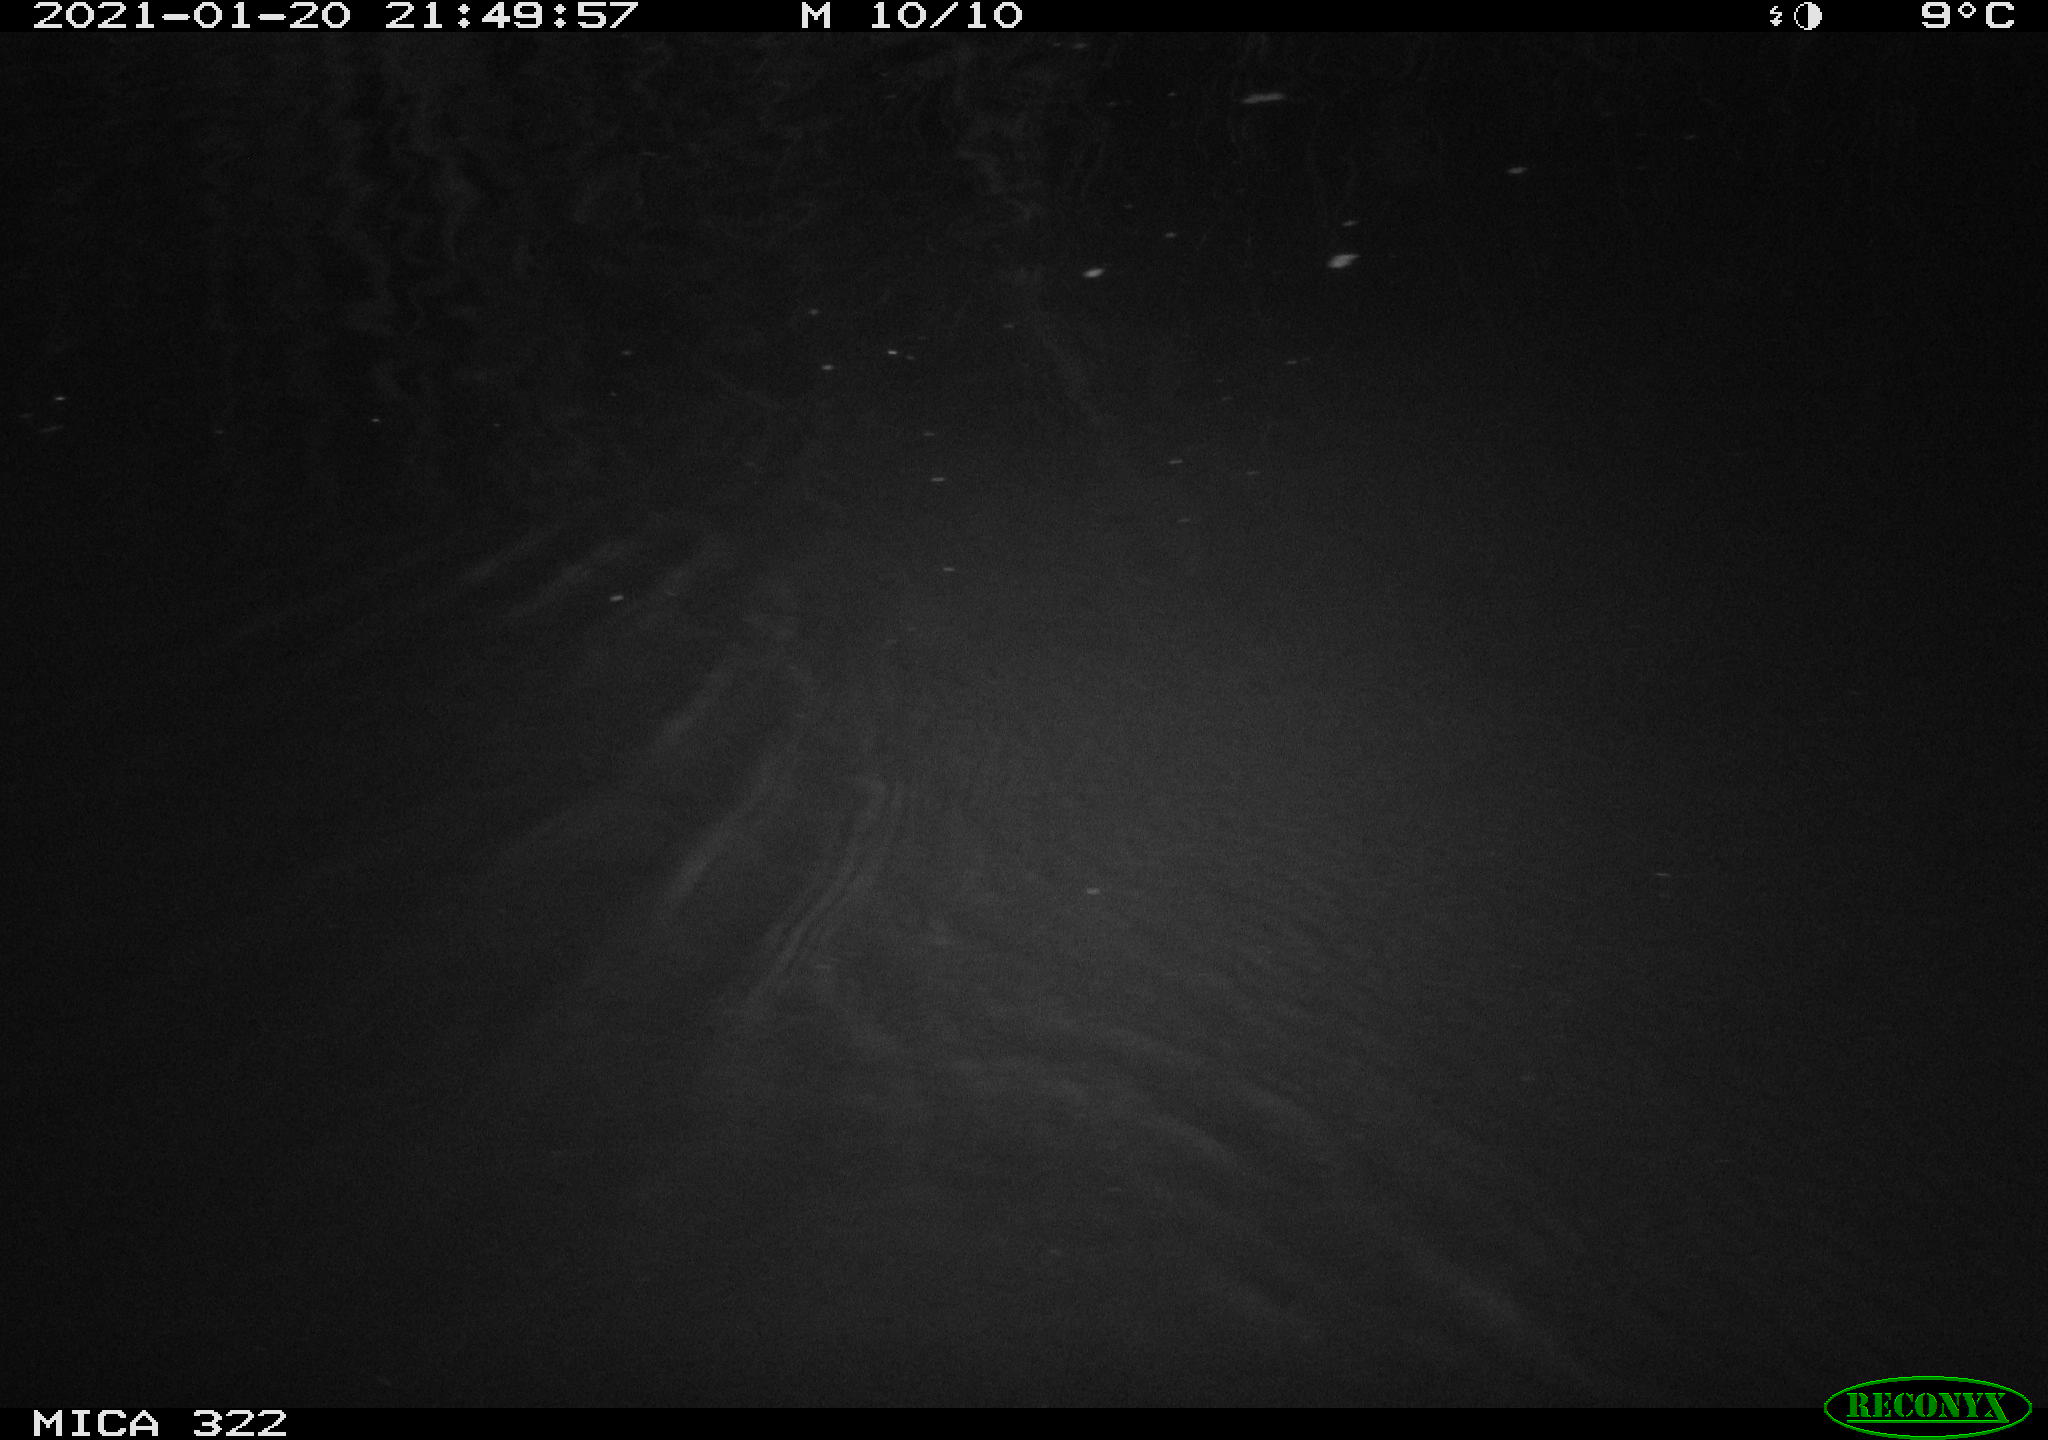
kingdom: Animalia
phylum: Chordata
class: Mammalia
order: Rodentia
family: Muridae
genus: Rattus
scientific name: Rattus norvegicus
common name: Brown rat
